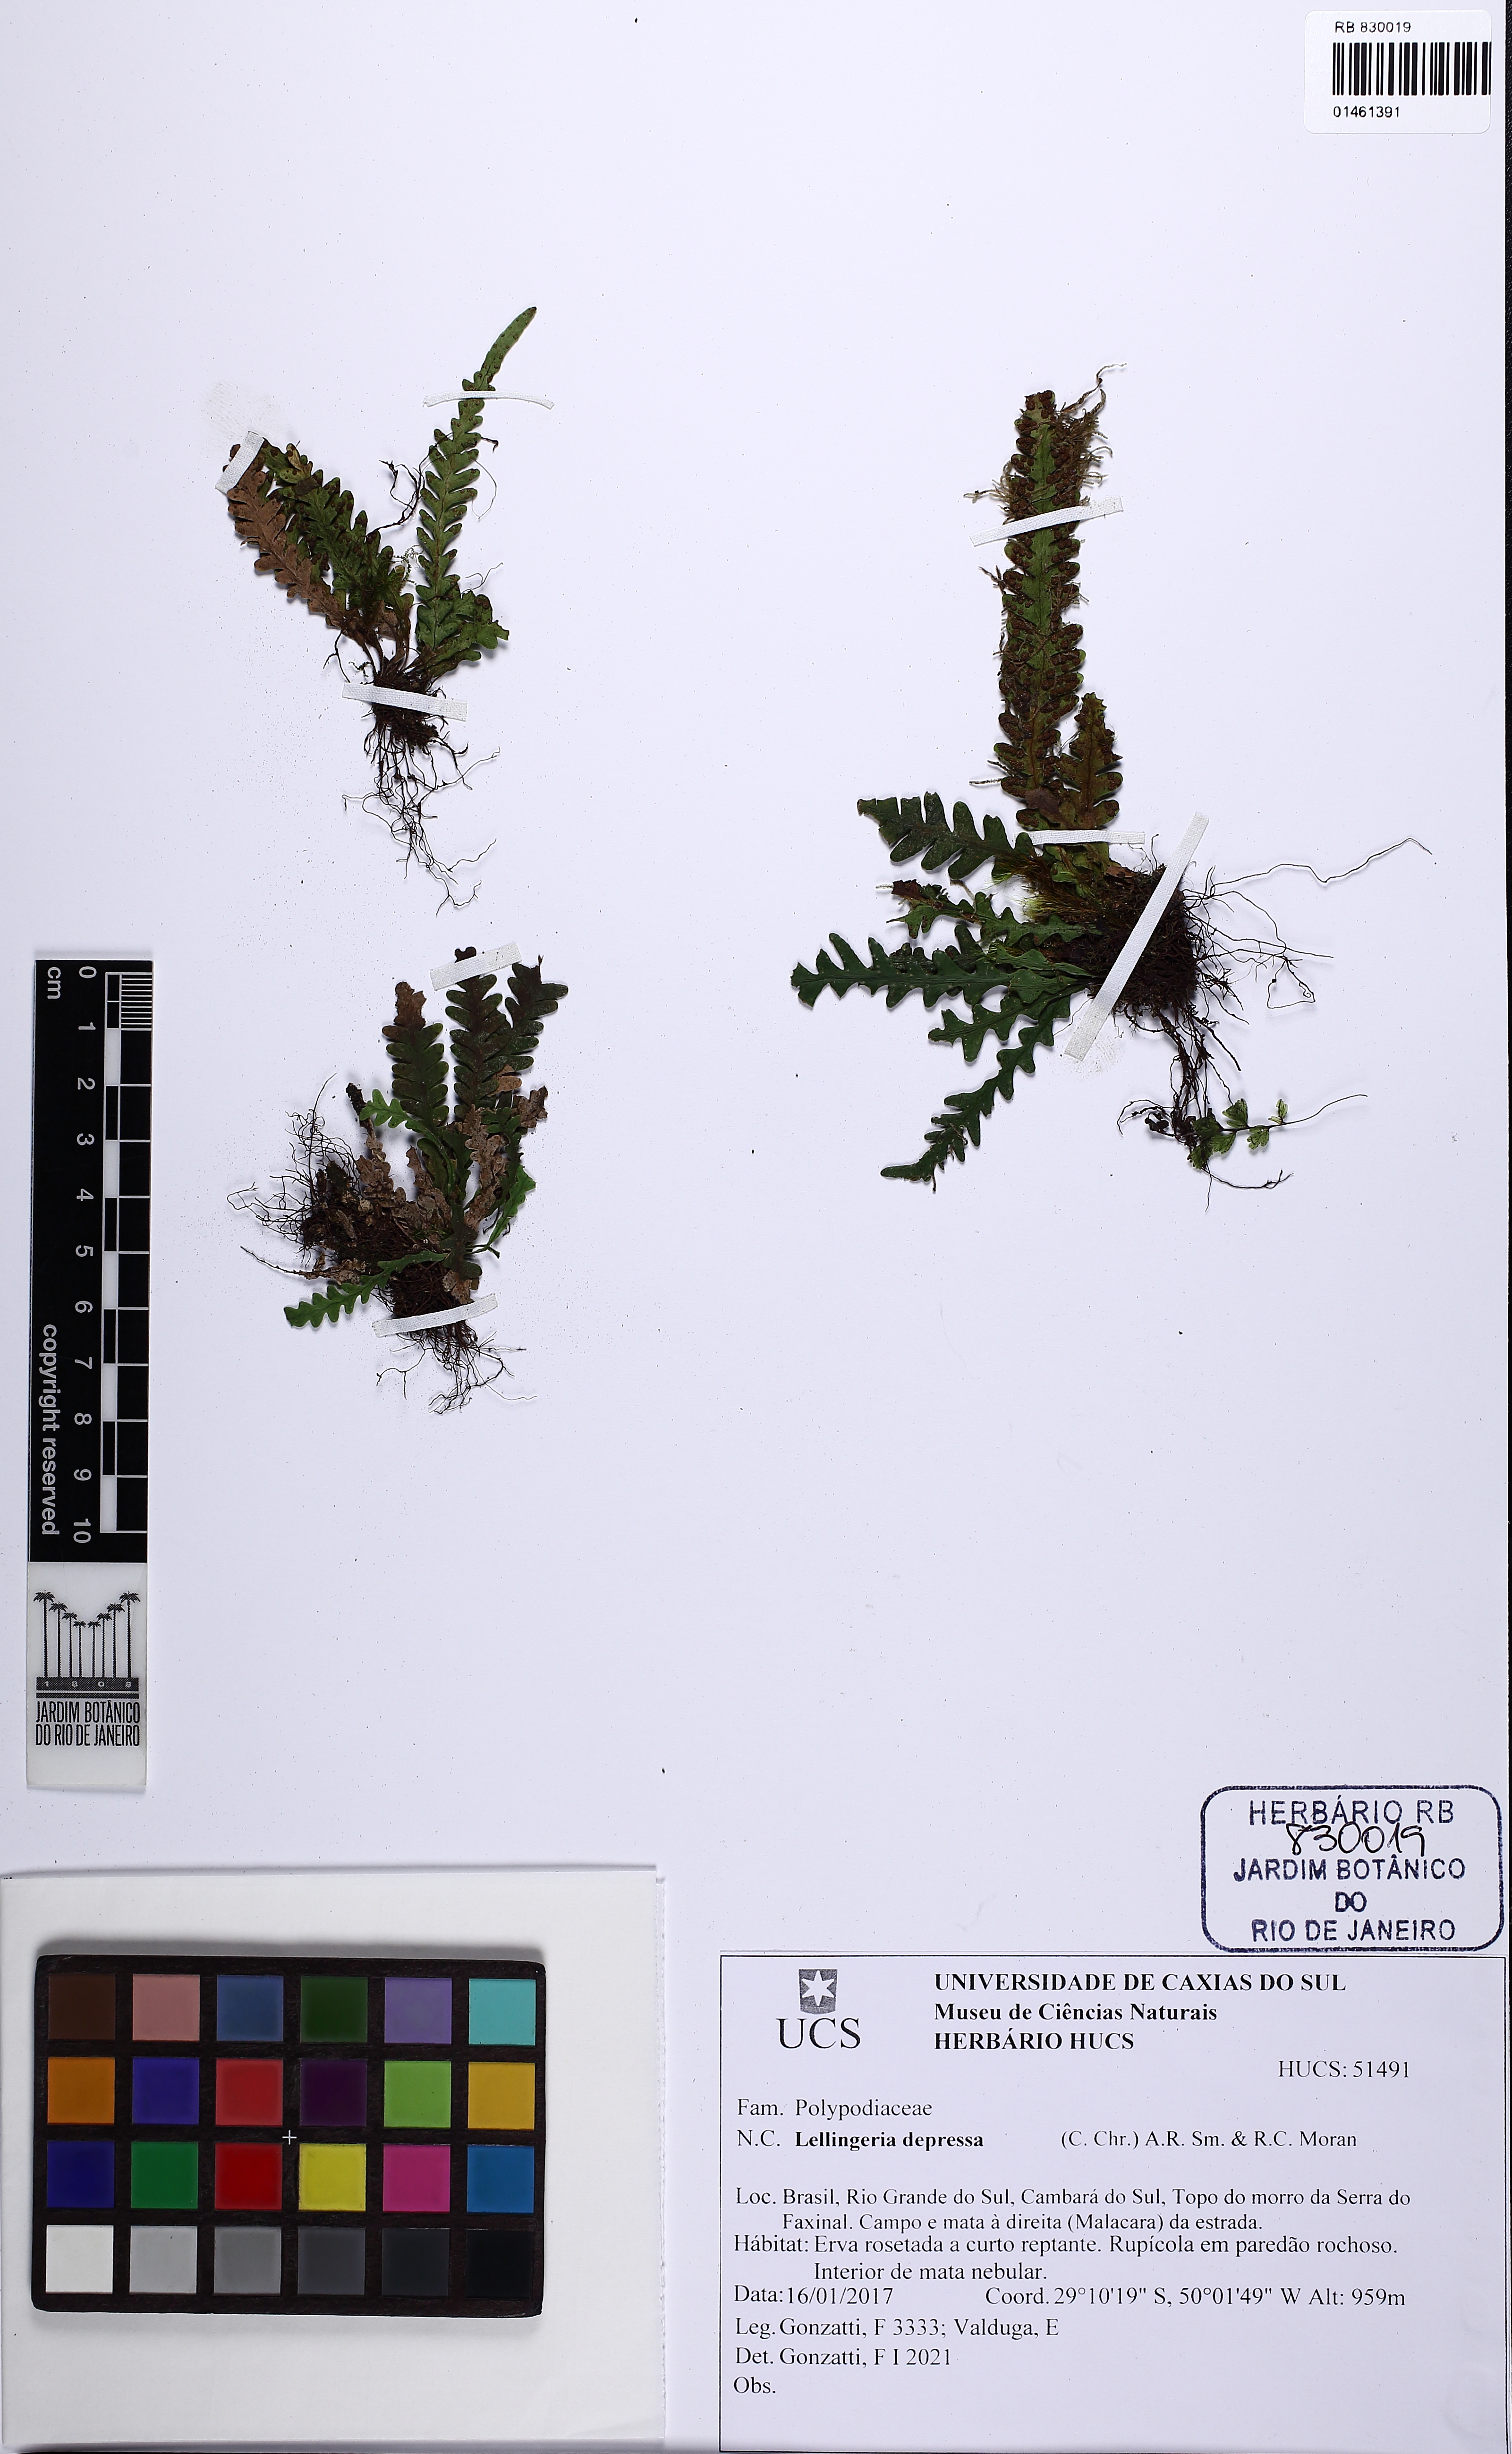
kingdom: Plantae
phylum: Tracheophyta
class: Polypodiopsida
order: Polypodiales
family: Polypodiaceae
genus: Lellingeria
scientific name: Lellingeria depressa
